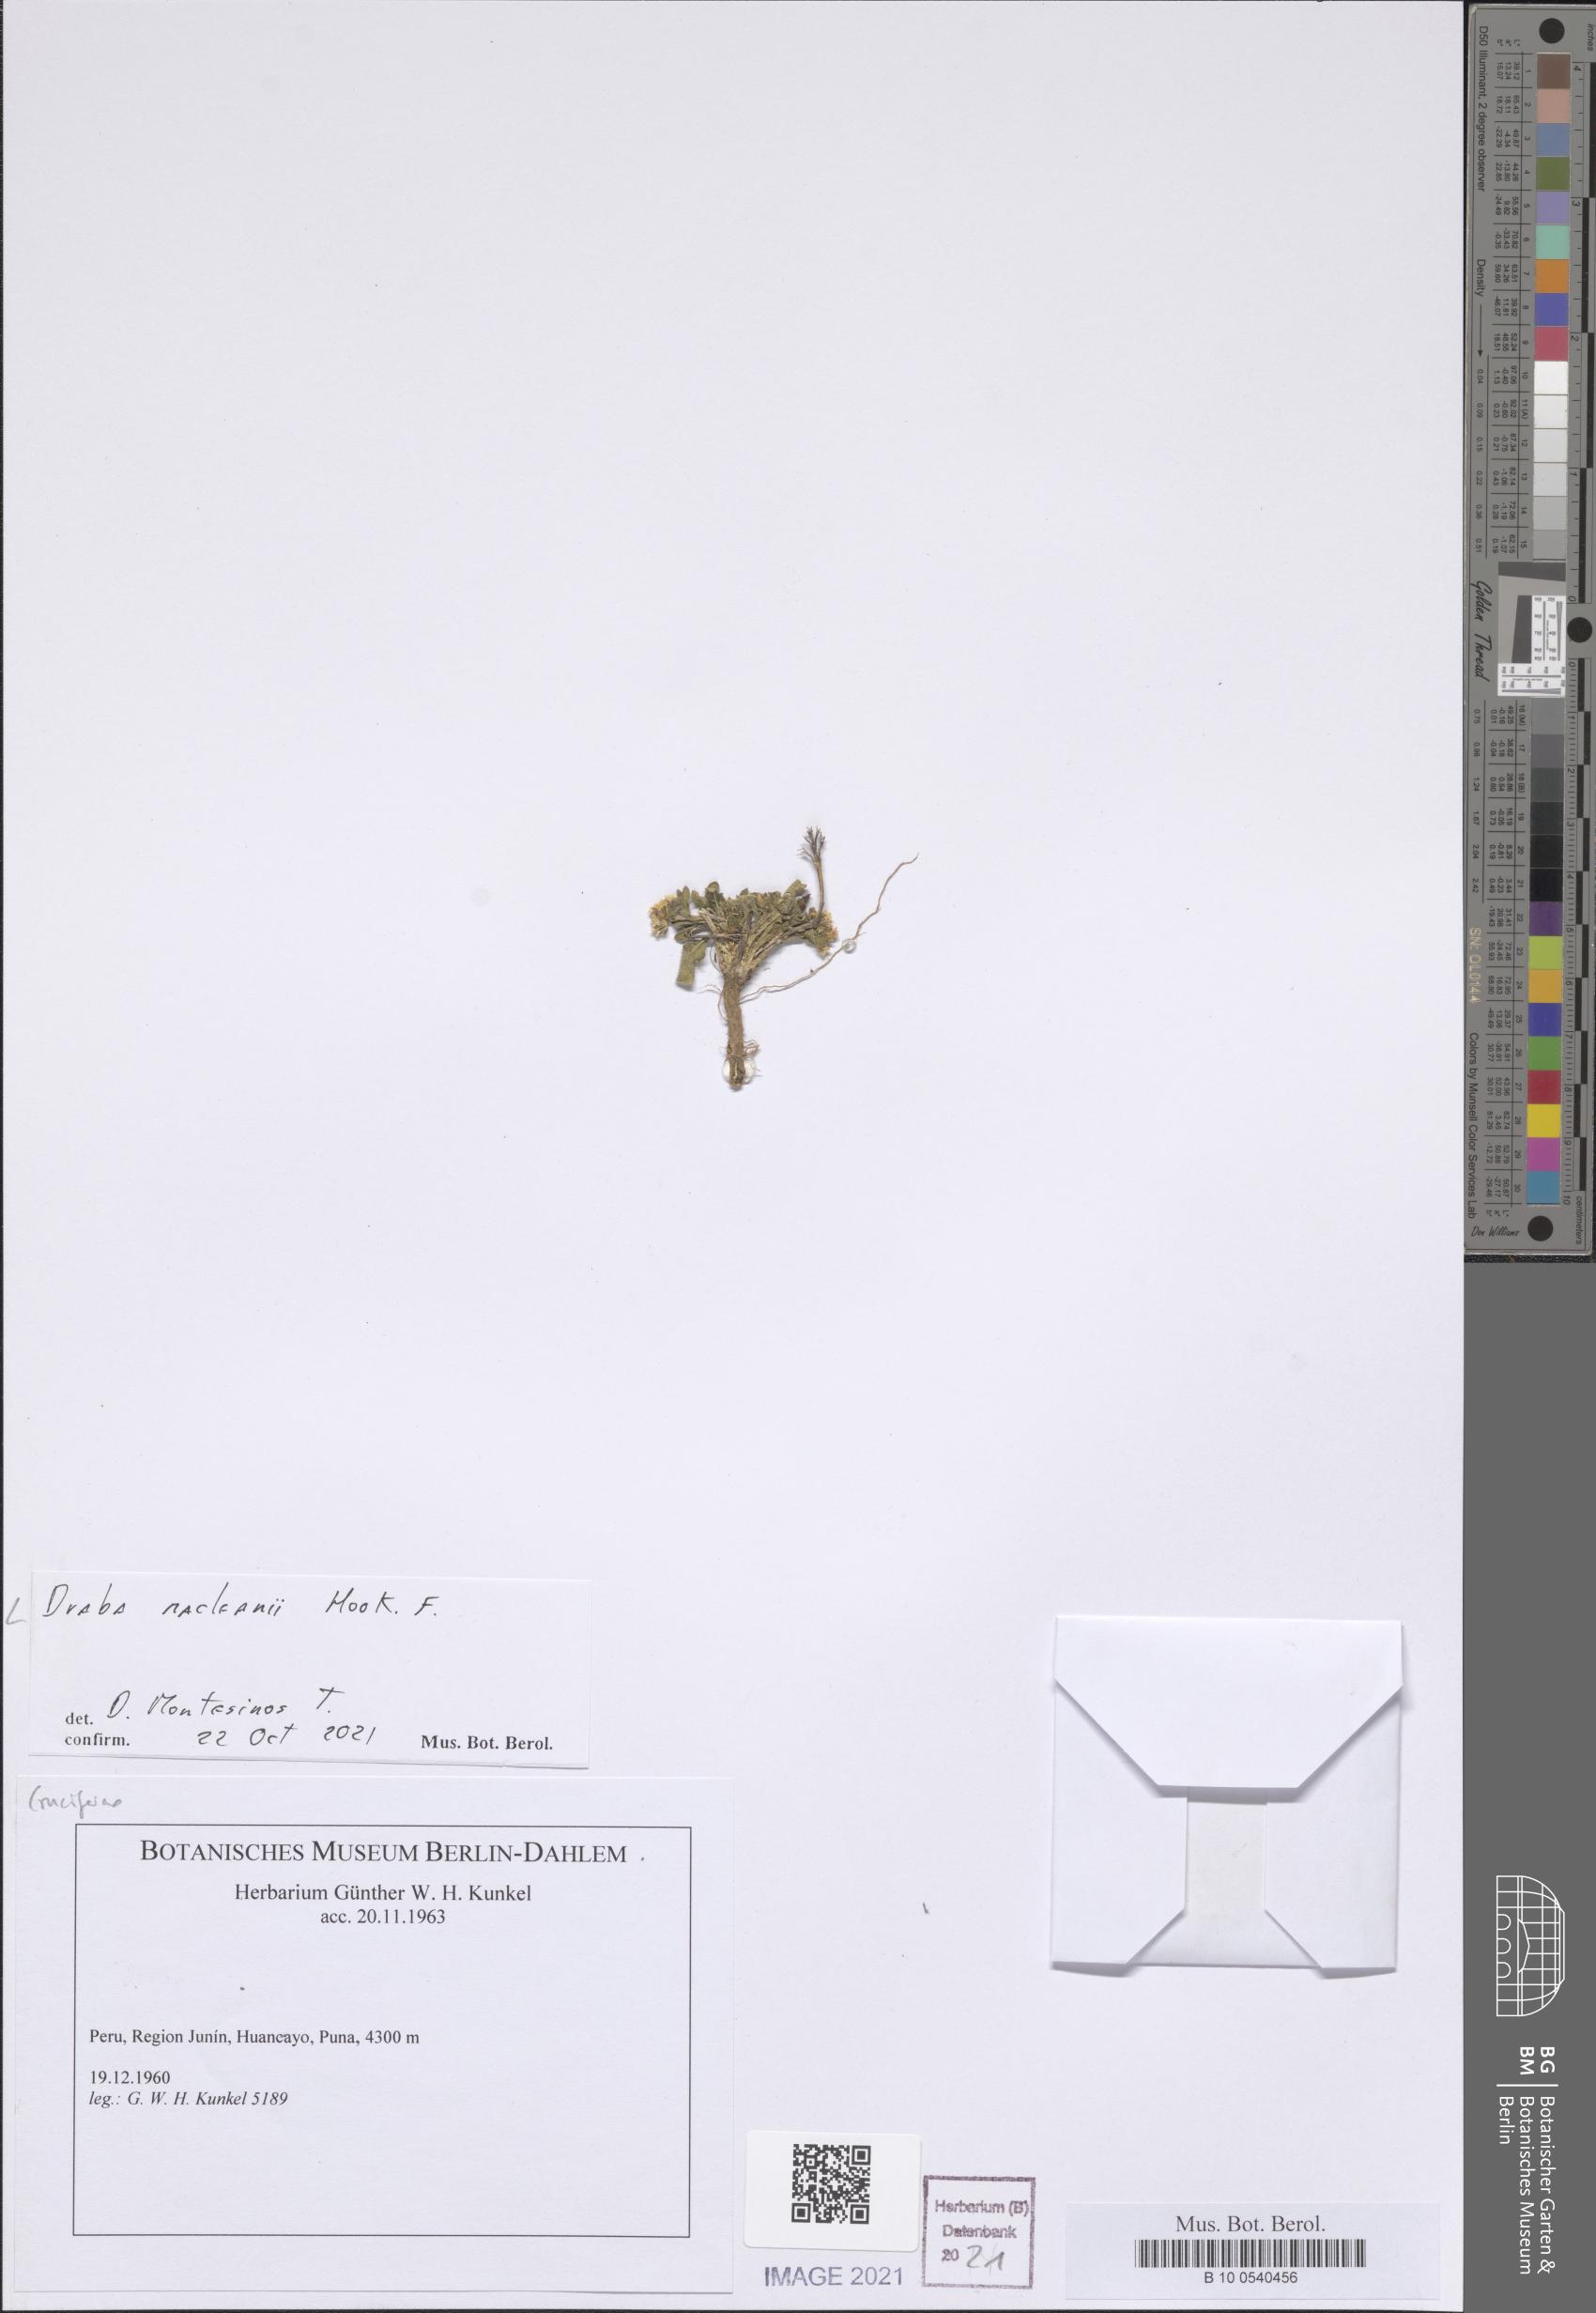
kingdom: Plantae
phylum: Tracheophyta
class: Magnoliopsida
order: Brassicales
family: Brassicaceae
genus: Draba
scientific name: Draba macleanii
